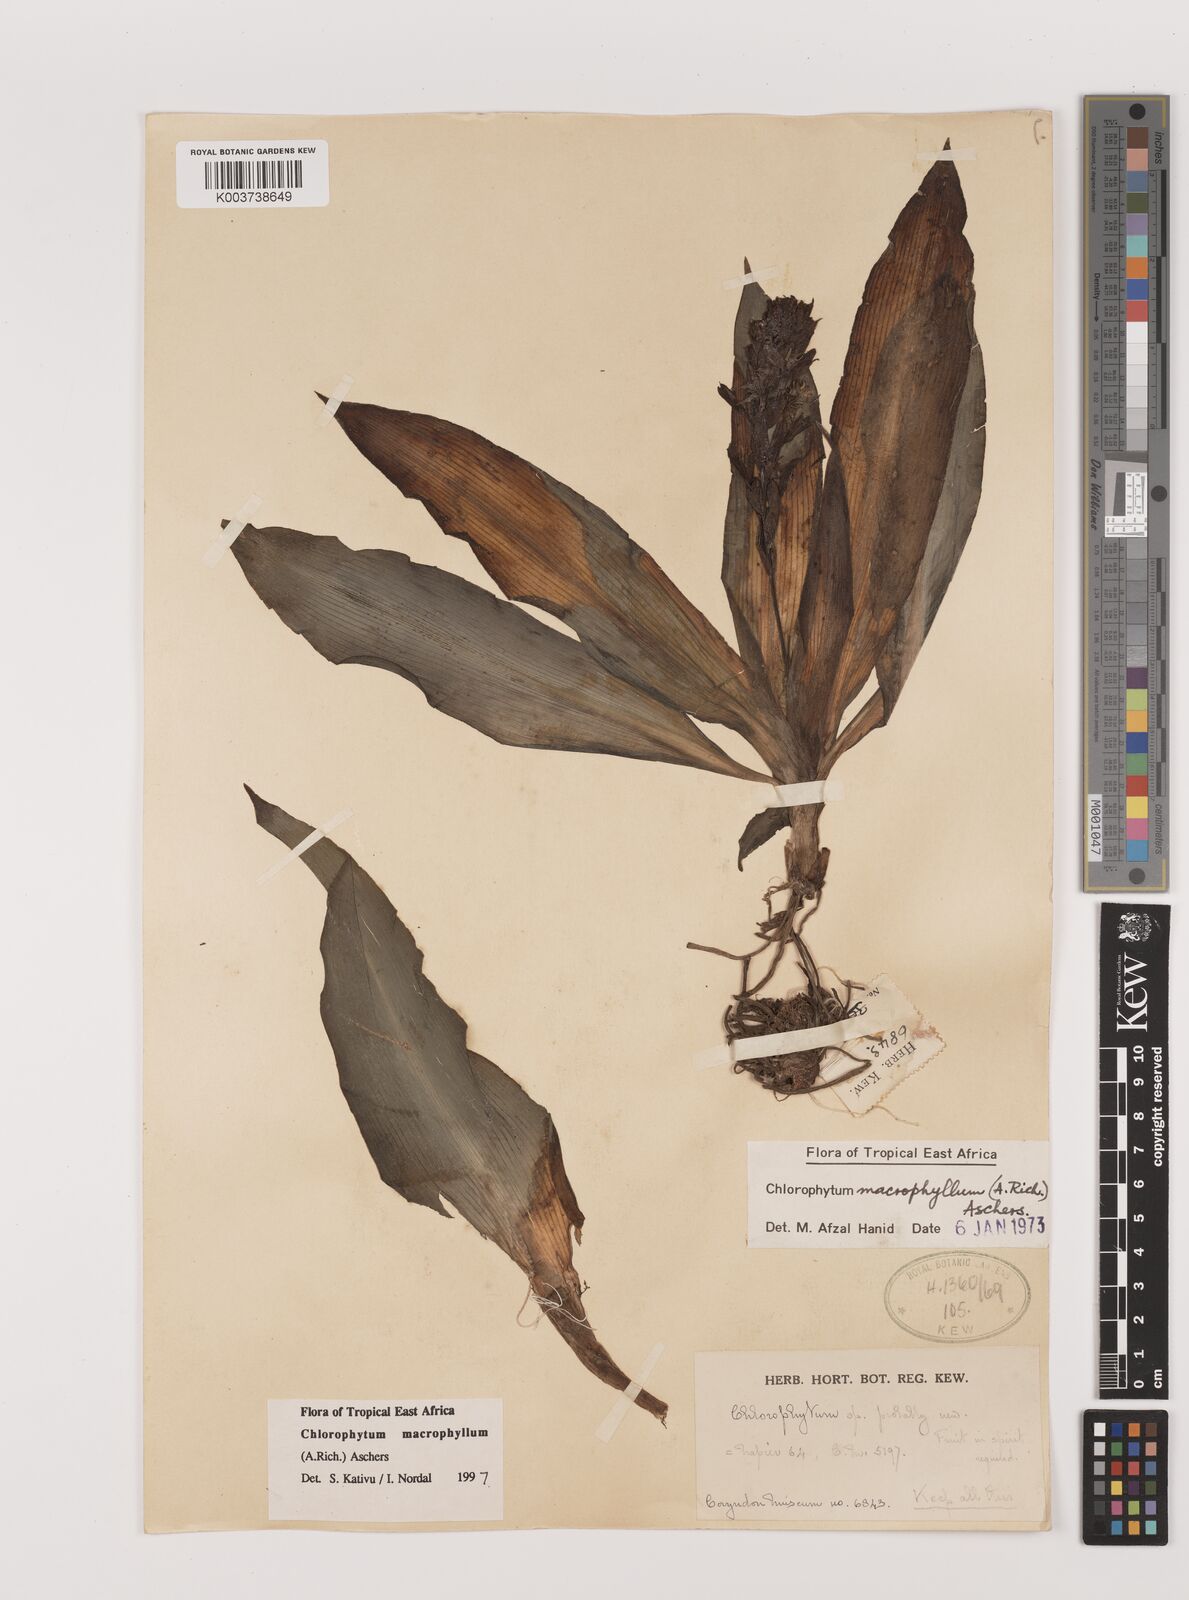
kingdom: Plantae
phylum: Tracheophyta
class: Liliopsida
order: Asparagales
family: Asparagaceae
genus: Chlorophytum
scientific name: Chlorophytum macrophyllum
